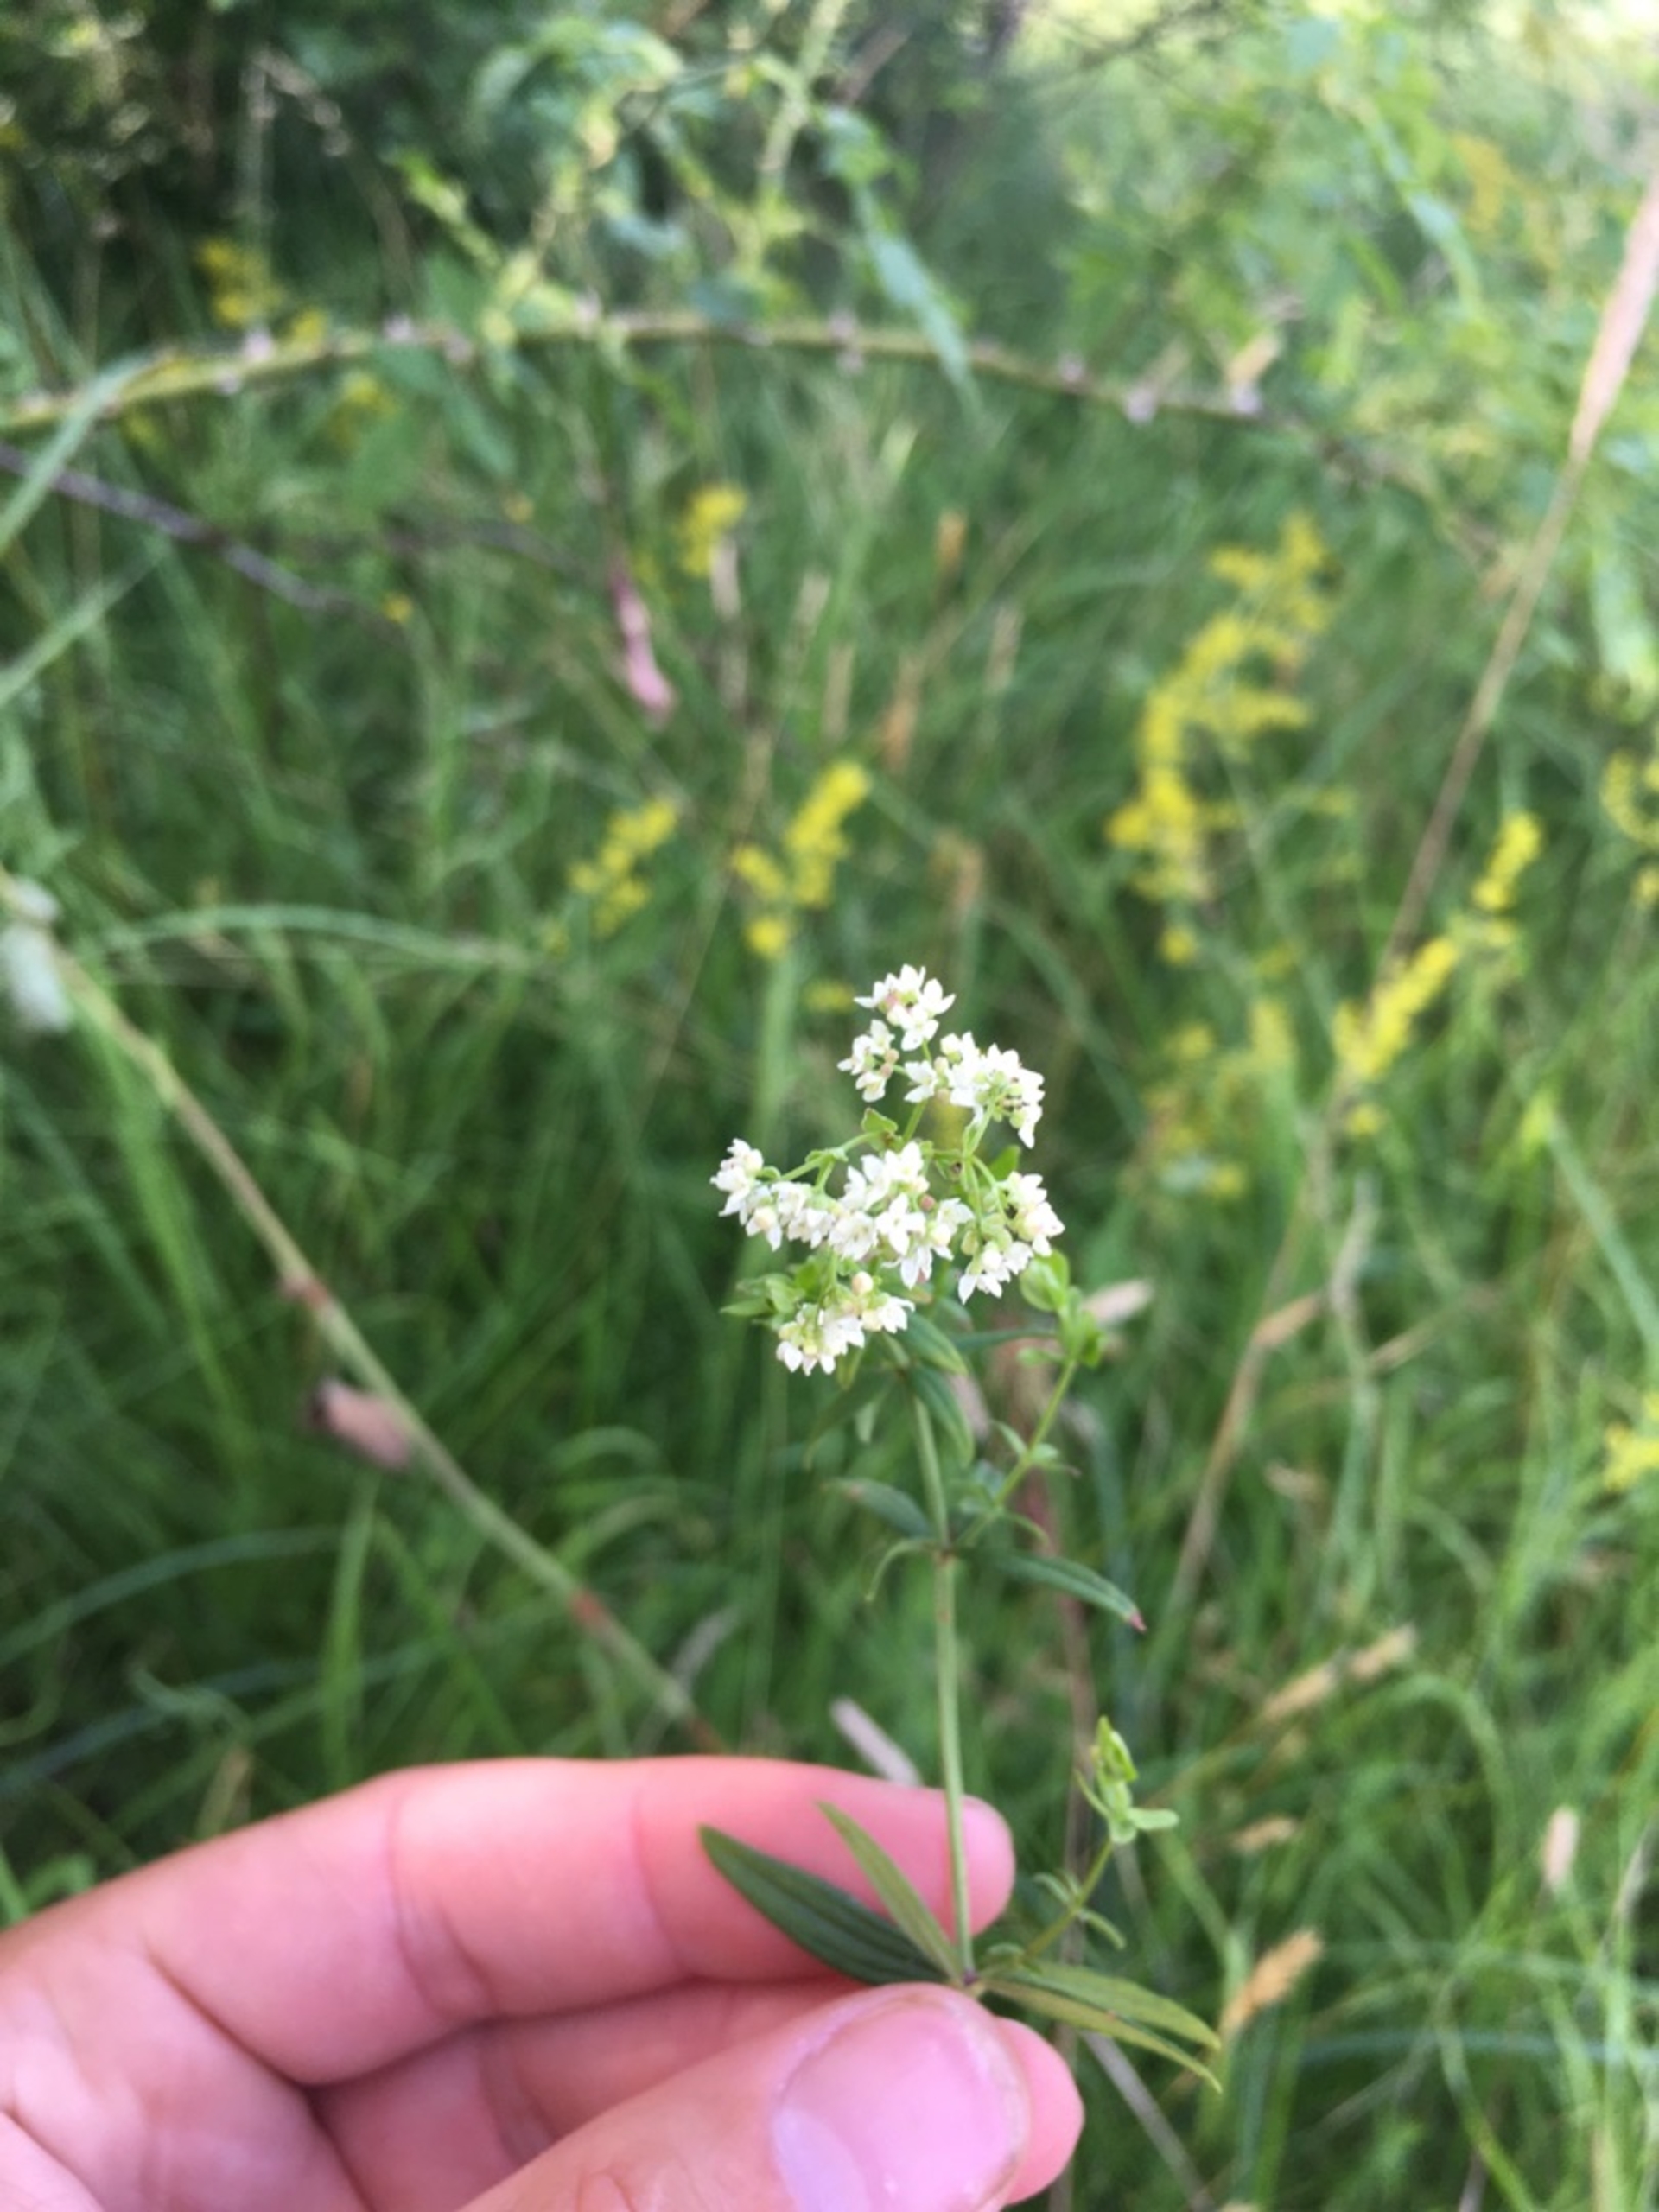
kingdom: Plantae
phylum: Tracheophyta
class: Magnoliopsida
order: Gentianales
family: Rubiaceae
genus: Galium
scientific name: Galium boreale
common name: Trenervet snerre
